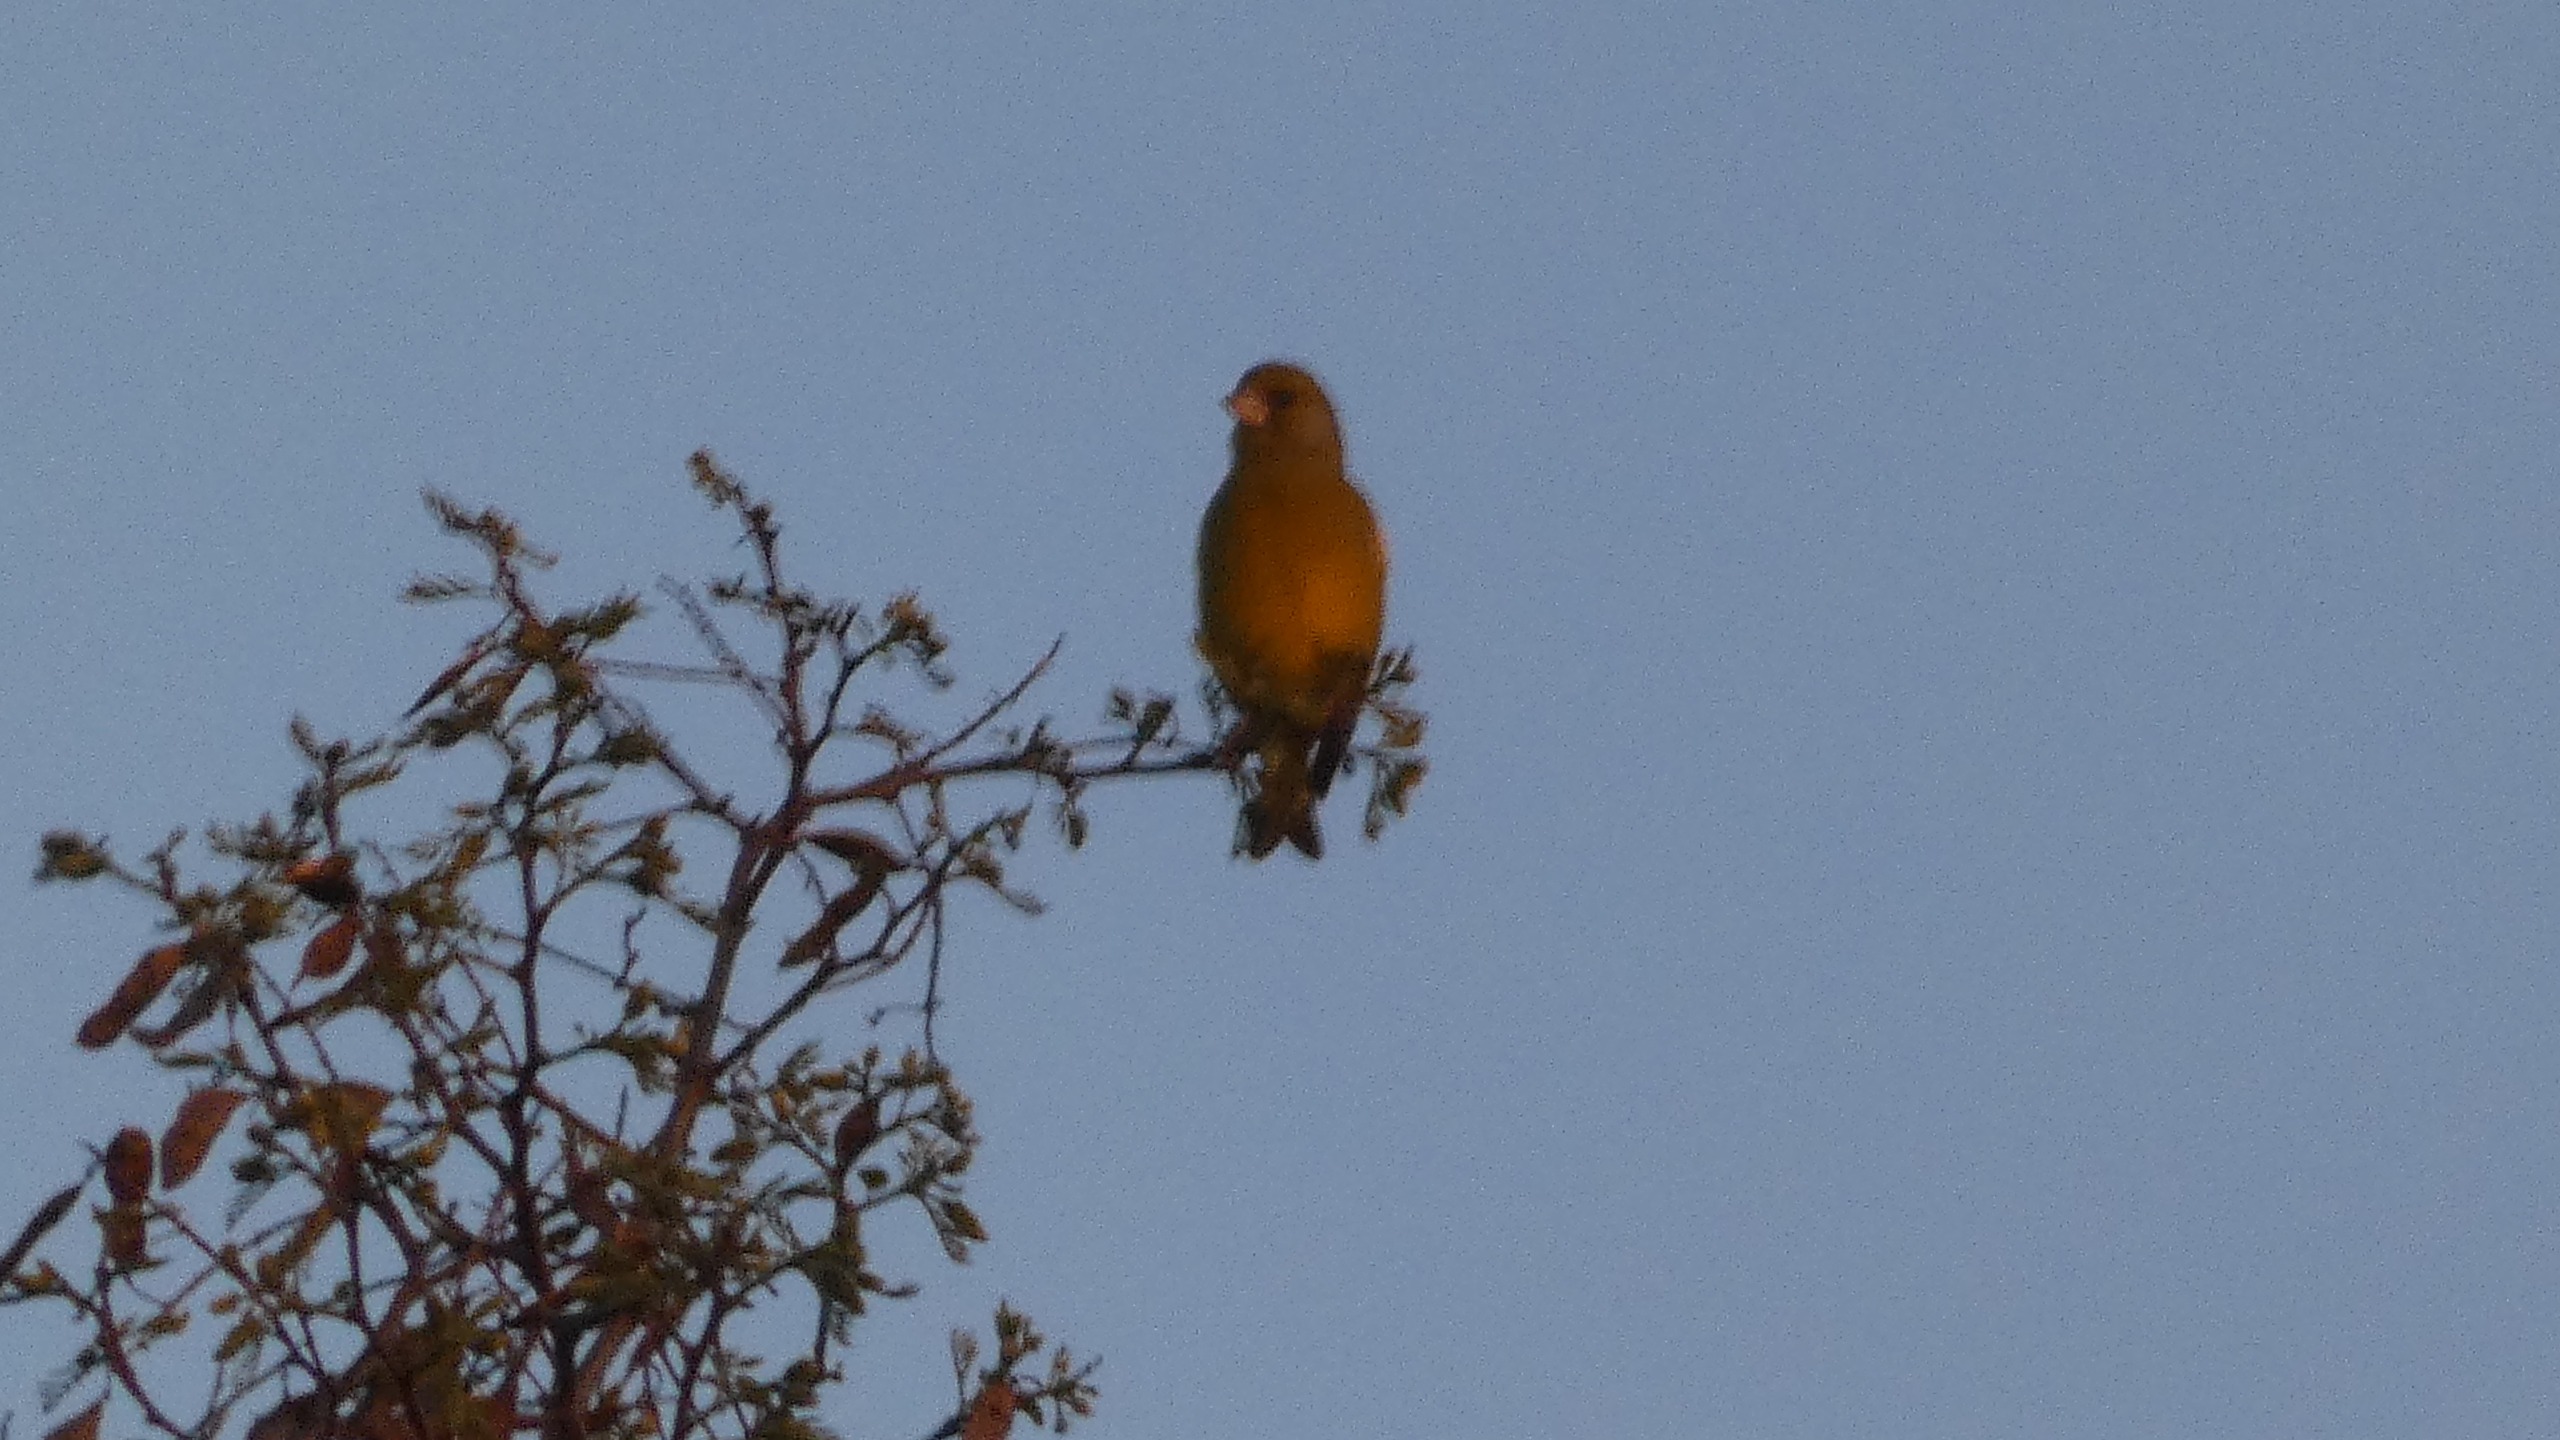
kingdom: Plantae
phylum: Tracheophyta
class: Liliopsida
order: Poales
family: Poaceae
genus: Chloris
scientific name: Chloris chloris
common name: Grønirisk
